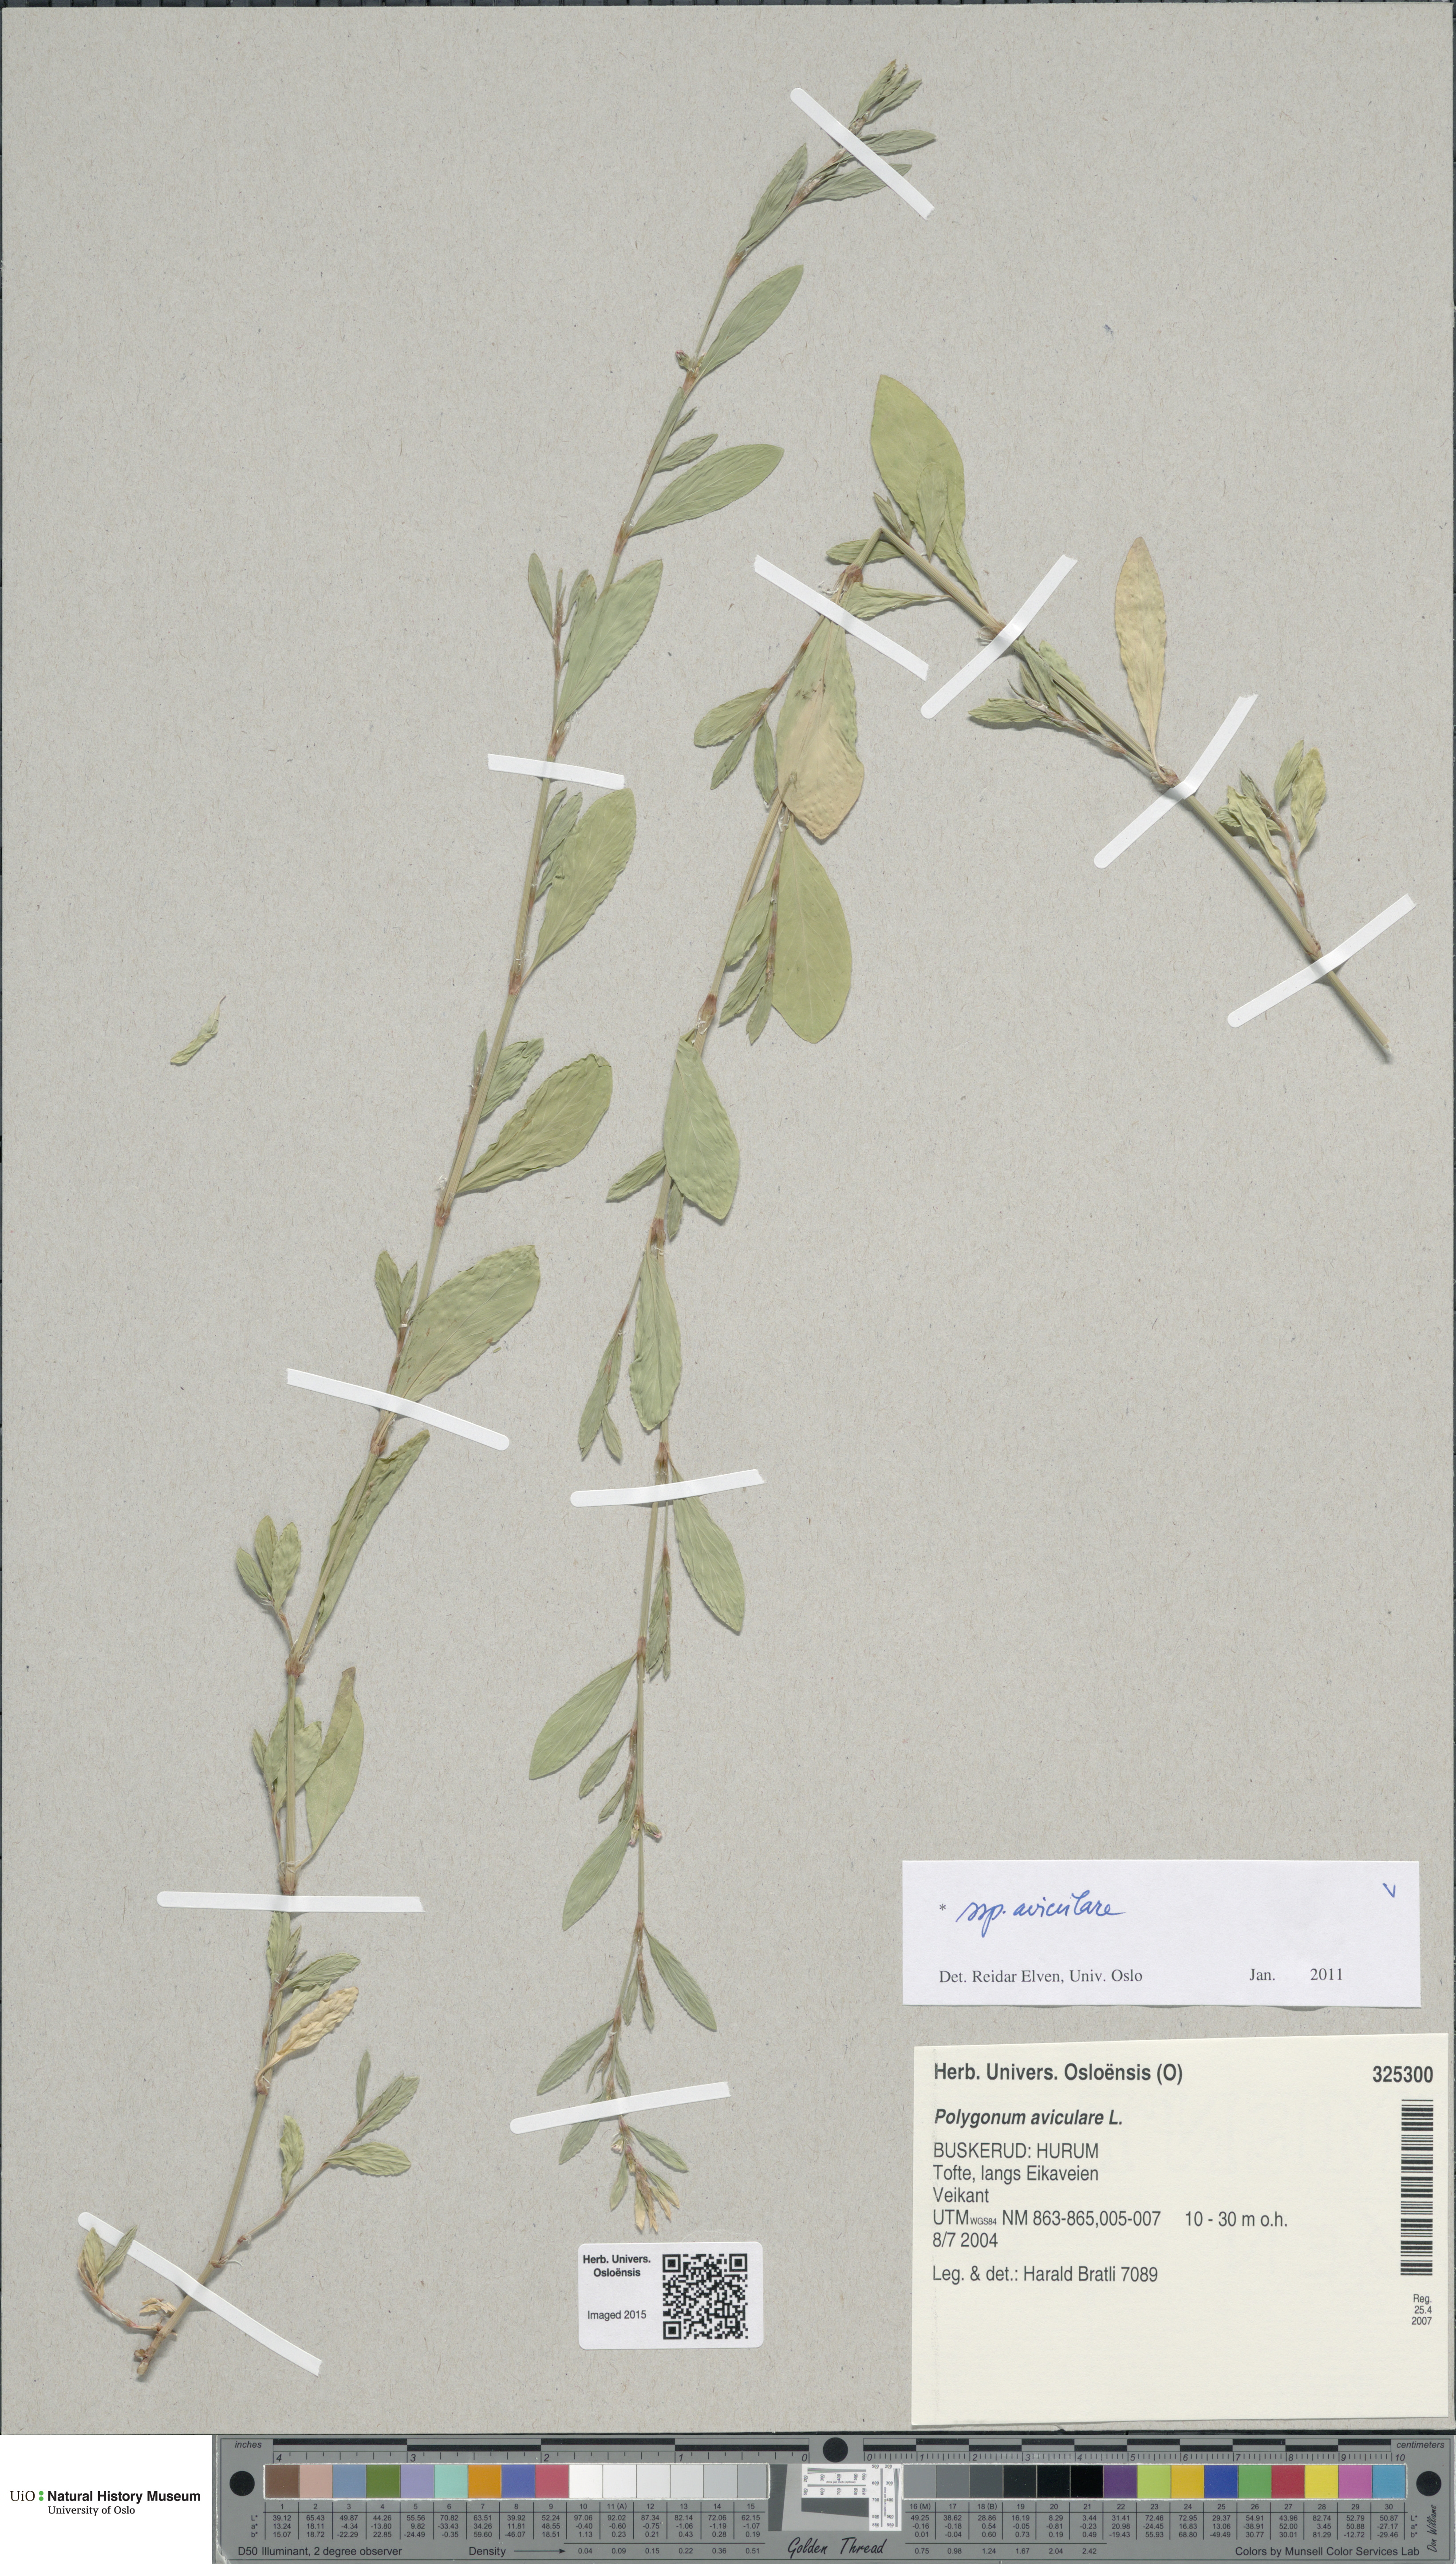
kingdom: Plantae
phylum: Tracheophyta
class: Magnoliopsida
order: Caryophyllales
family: Polygonaceae
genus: Polygonum
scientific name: Polygonum aviculare
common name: Prostrate knotweed
